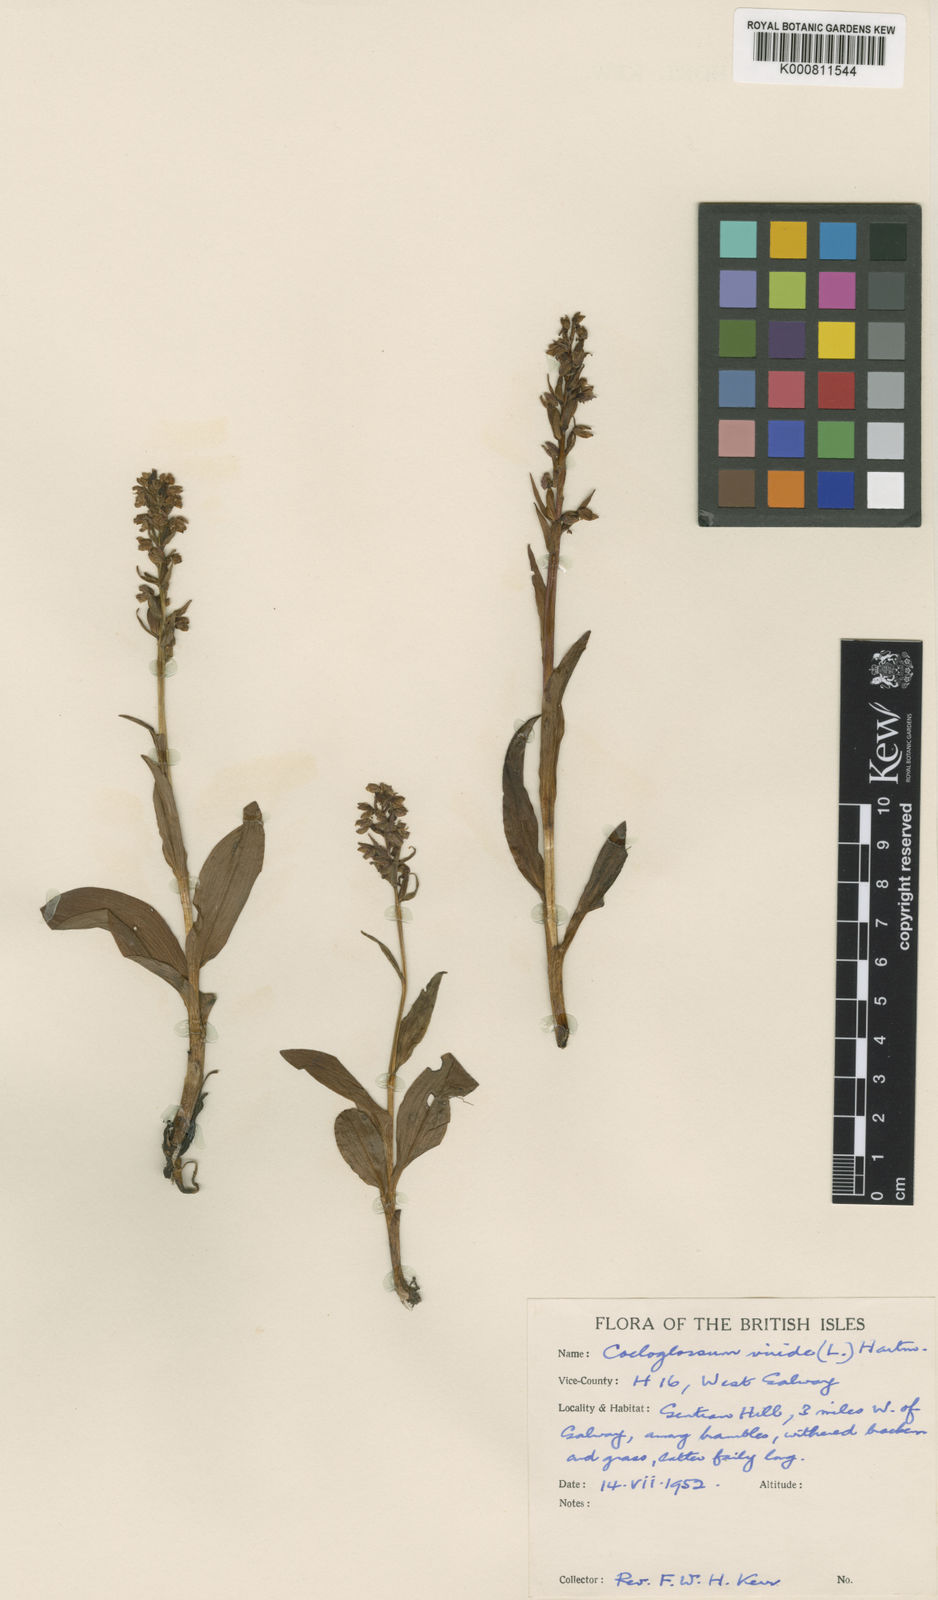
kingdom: Plantae
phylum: Tracheophyta
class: Liliopsida
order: Asparagales
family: Orchidaceae
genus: Dactylorhiza
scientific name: Dactylorhiza viridis
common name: Longbract frog orchid
